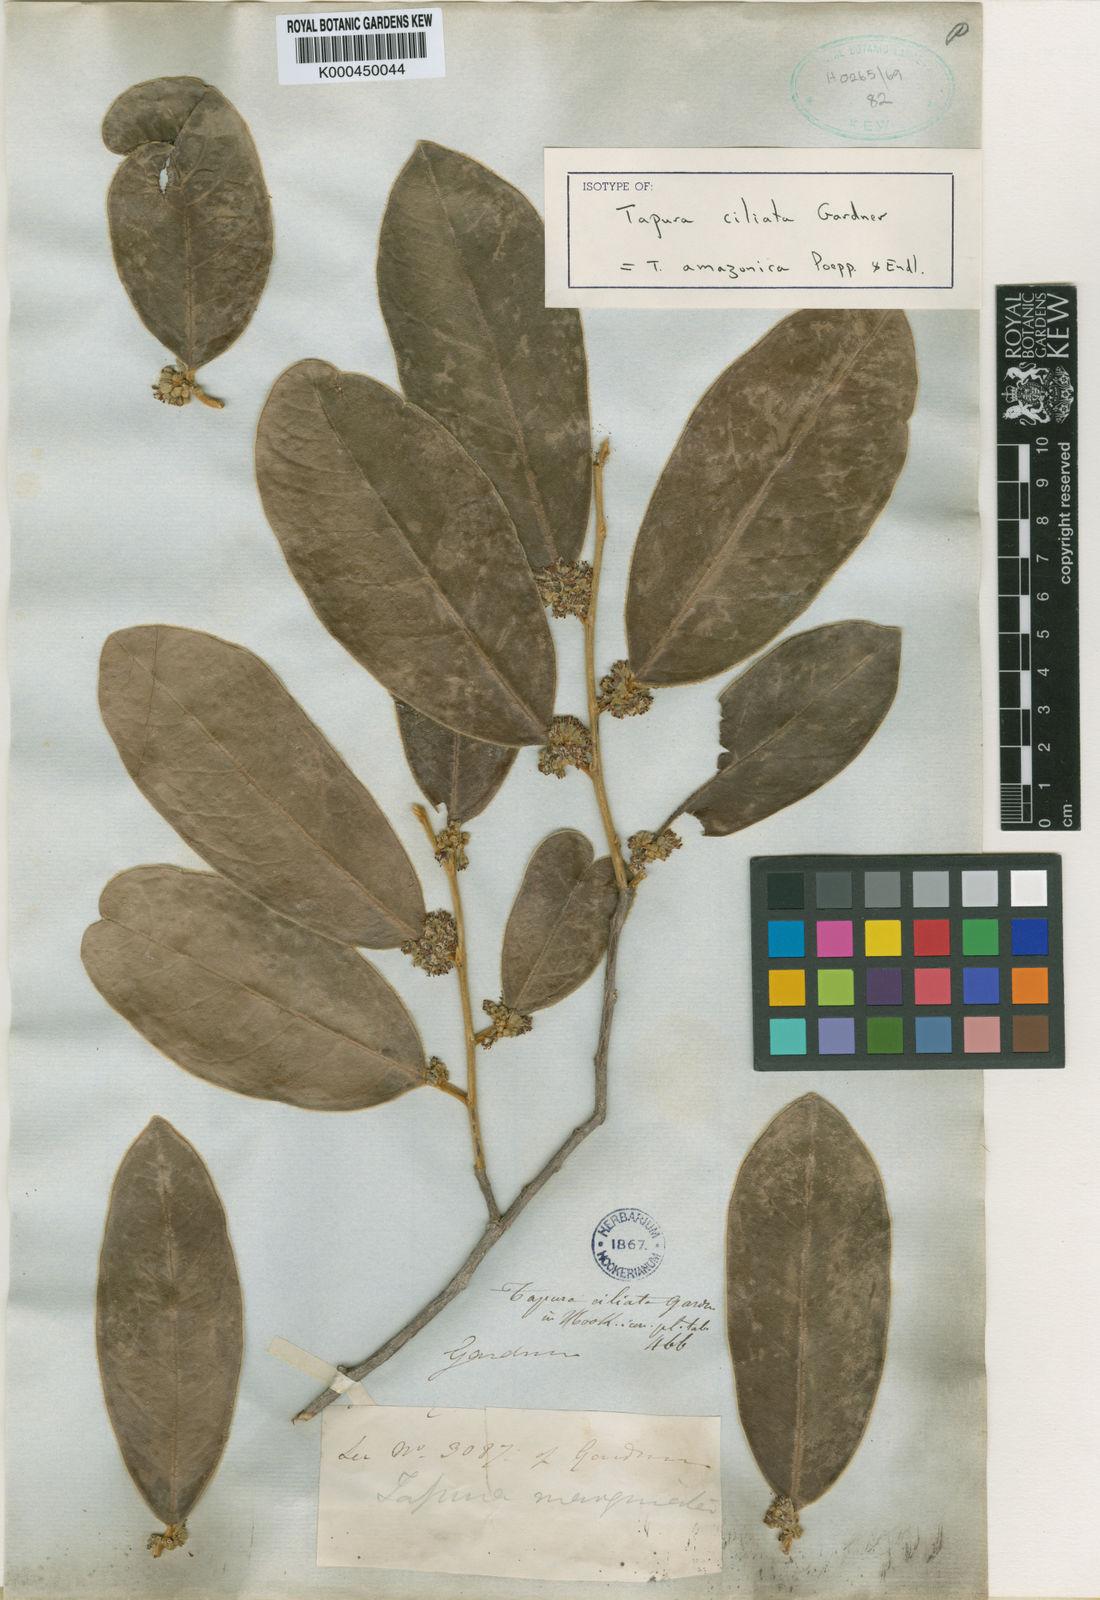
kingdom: Plantae
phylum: Tracheophyta
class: Magnoliopsida
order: Malpighiales
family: Dichapetalaceae
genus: Tapura
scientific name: Tapura amazonica
